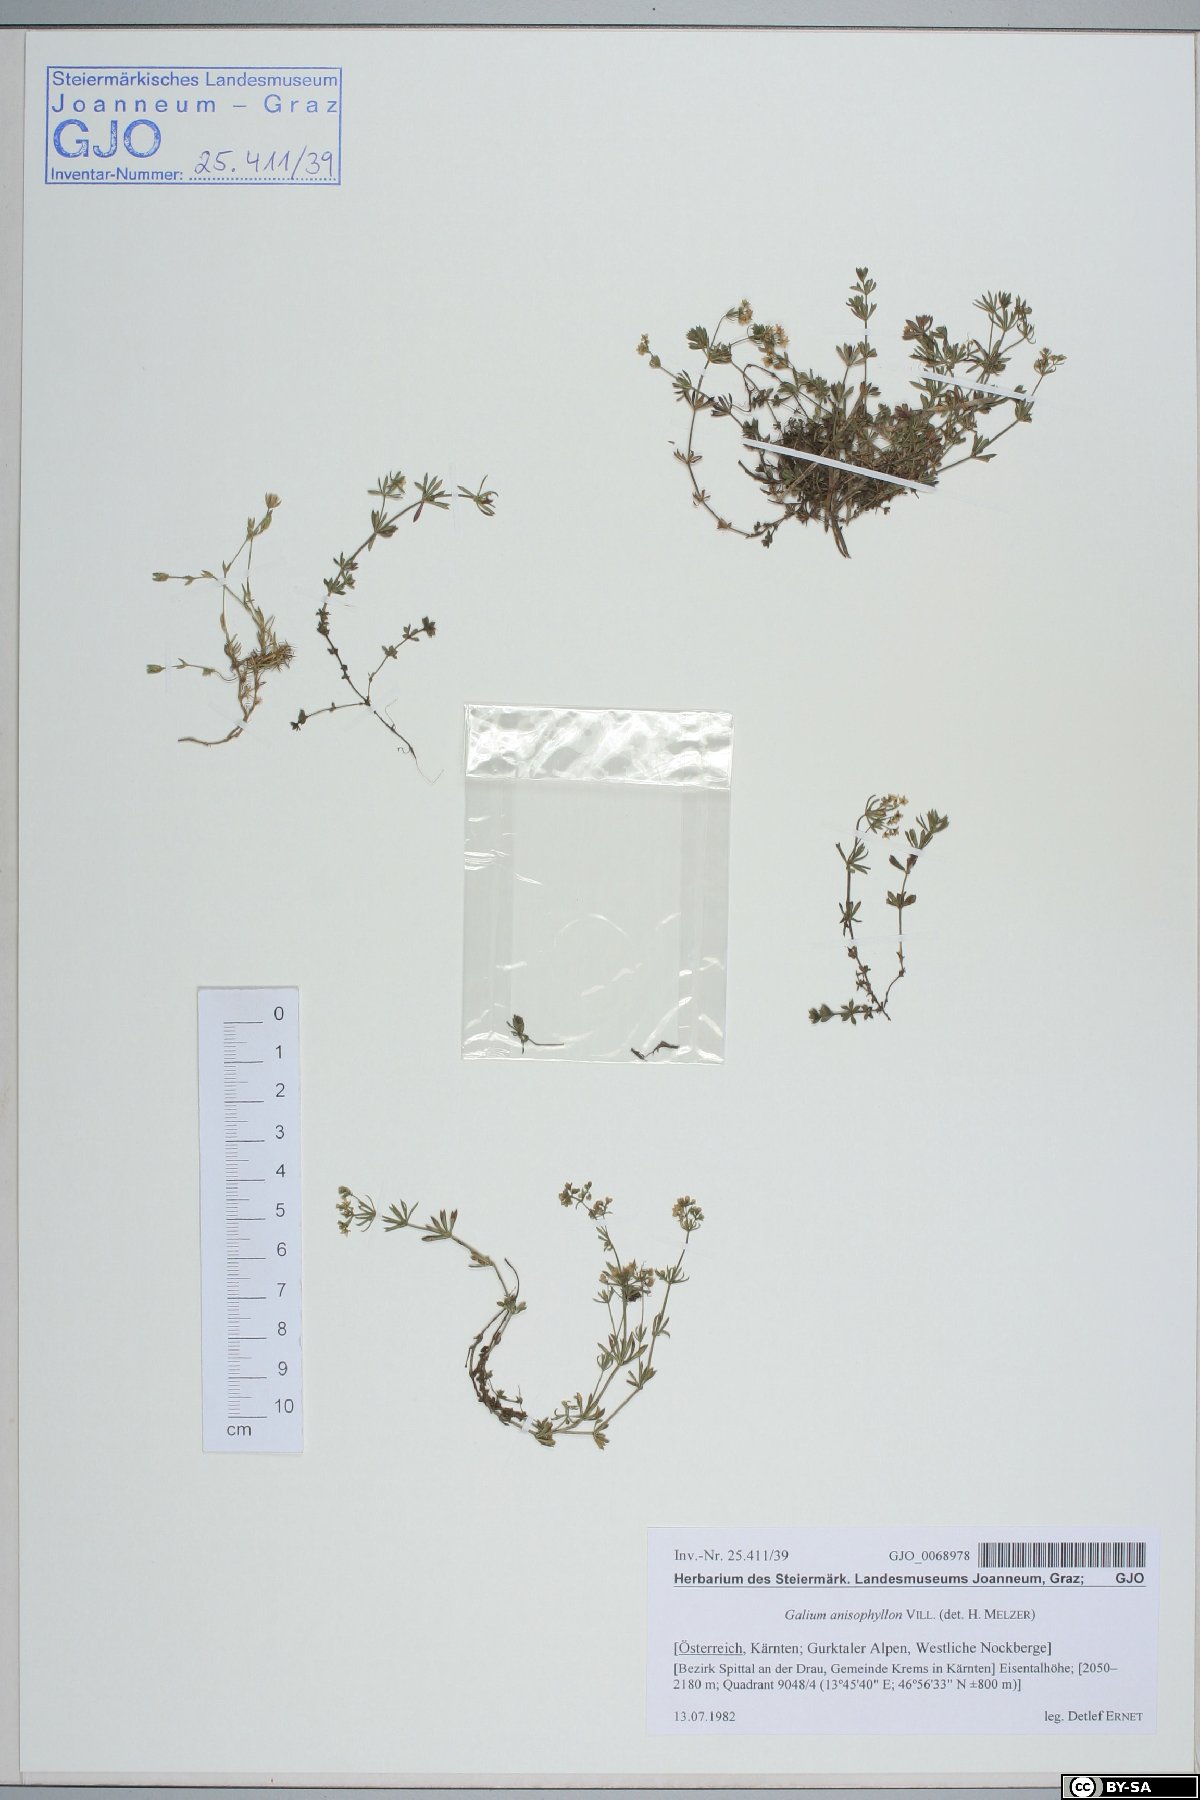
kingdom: Plantae
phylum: Tracheophyta
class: Magnoliopsida
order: Gentianales
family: Rubiaceae
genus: Galium
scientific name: Galium anisophyllon
